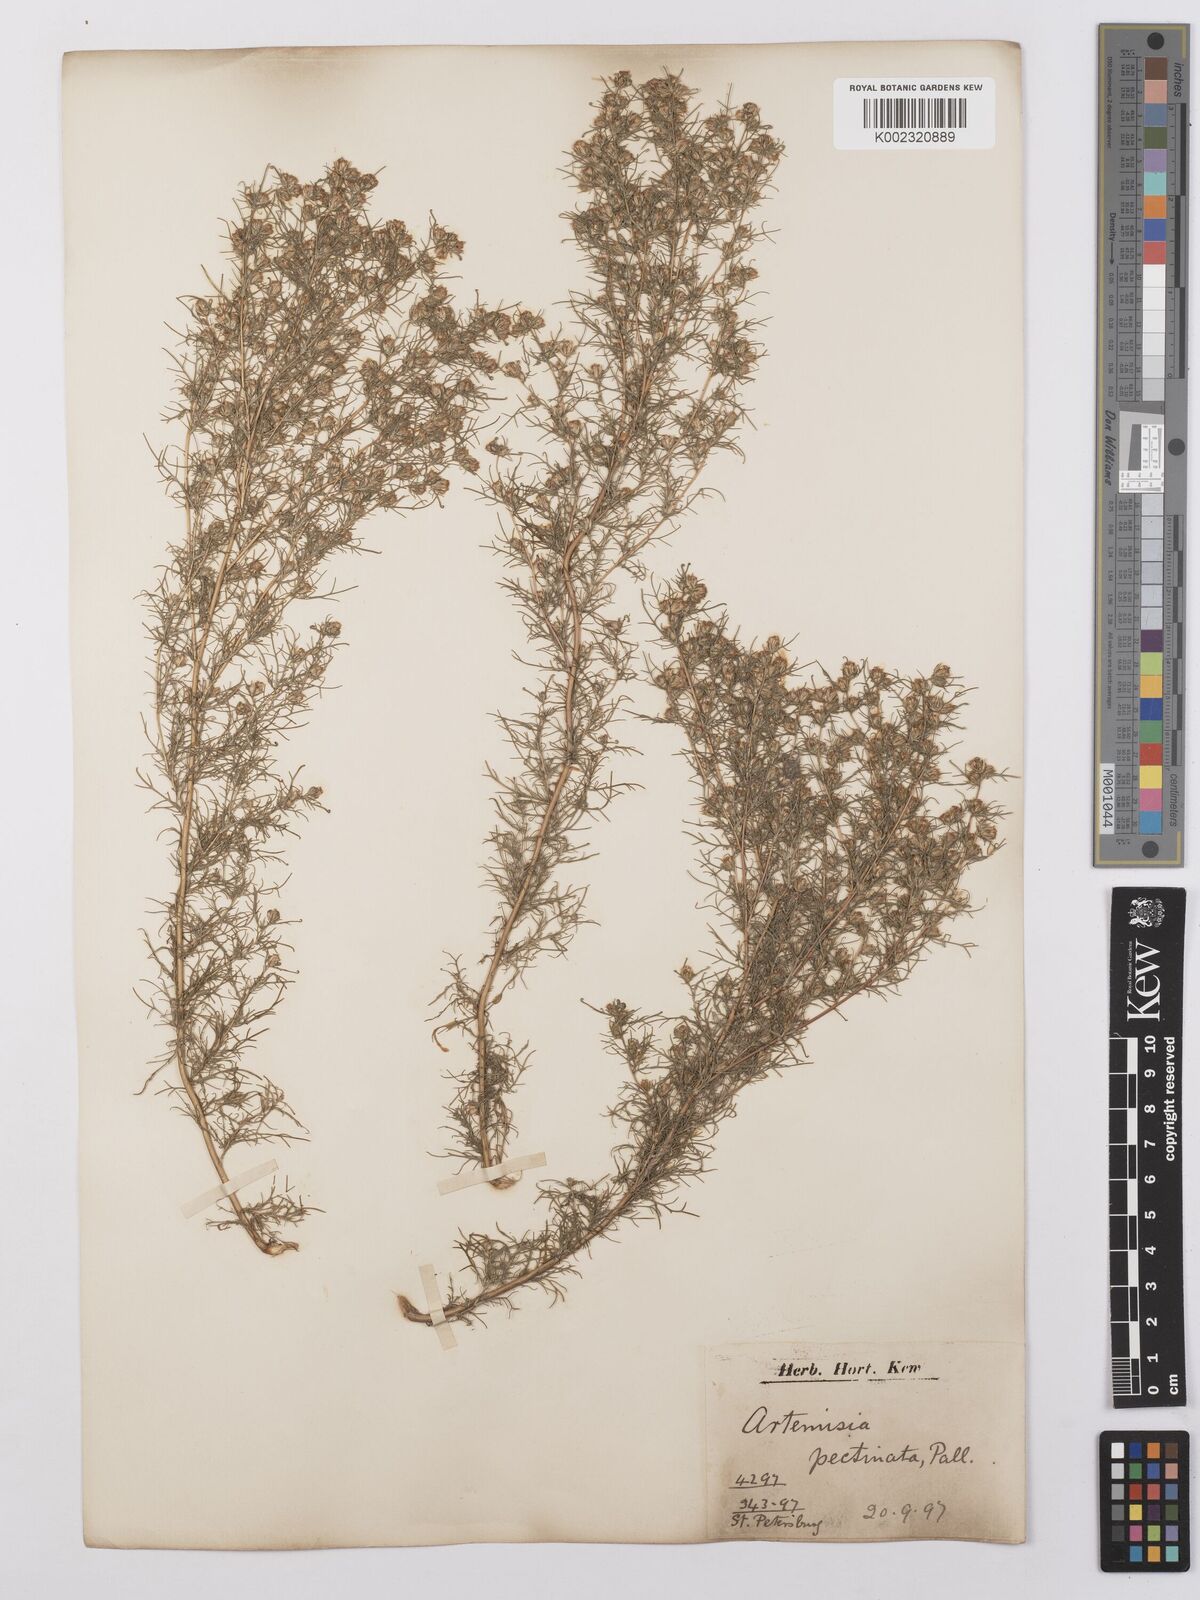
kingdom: Plantae
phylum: Tracheophyta
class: Magnoliopsida
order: Asterales
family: Asteraceae
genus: Neopallasia
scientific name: Neopallasia pectinata
